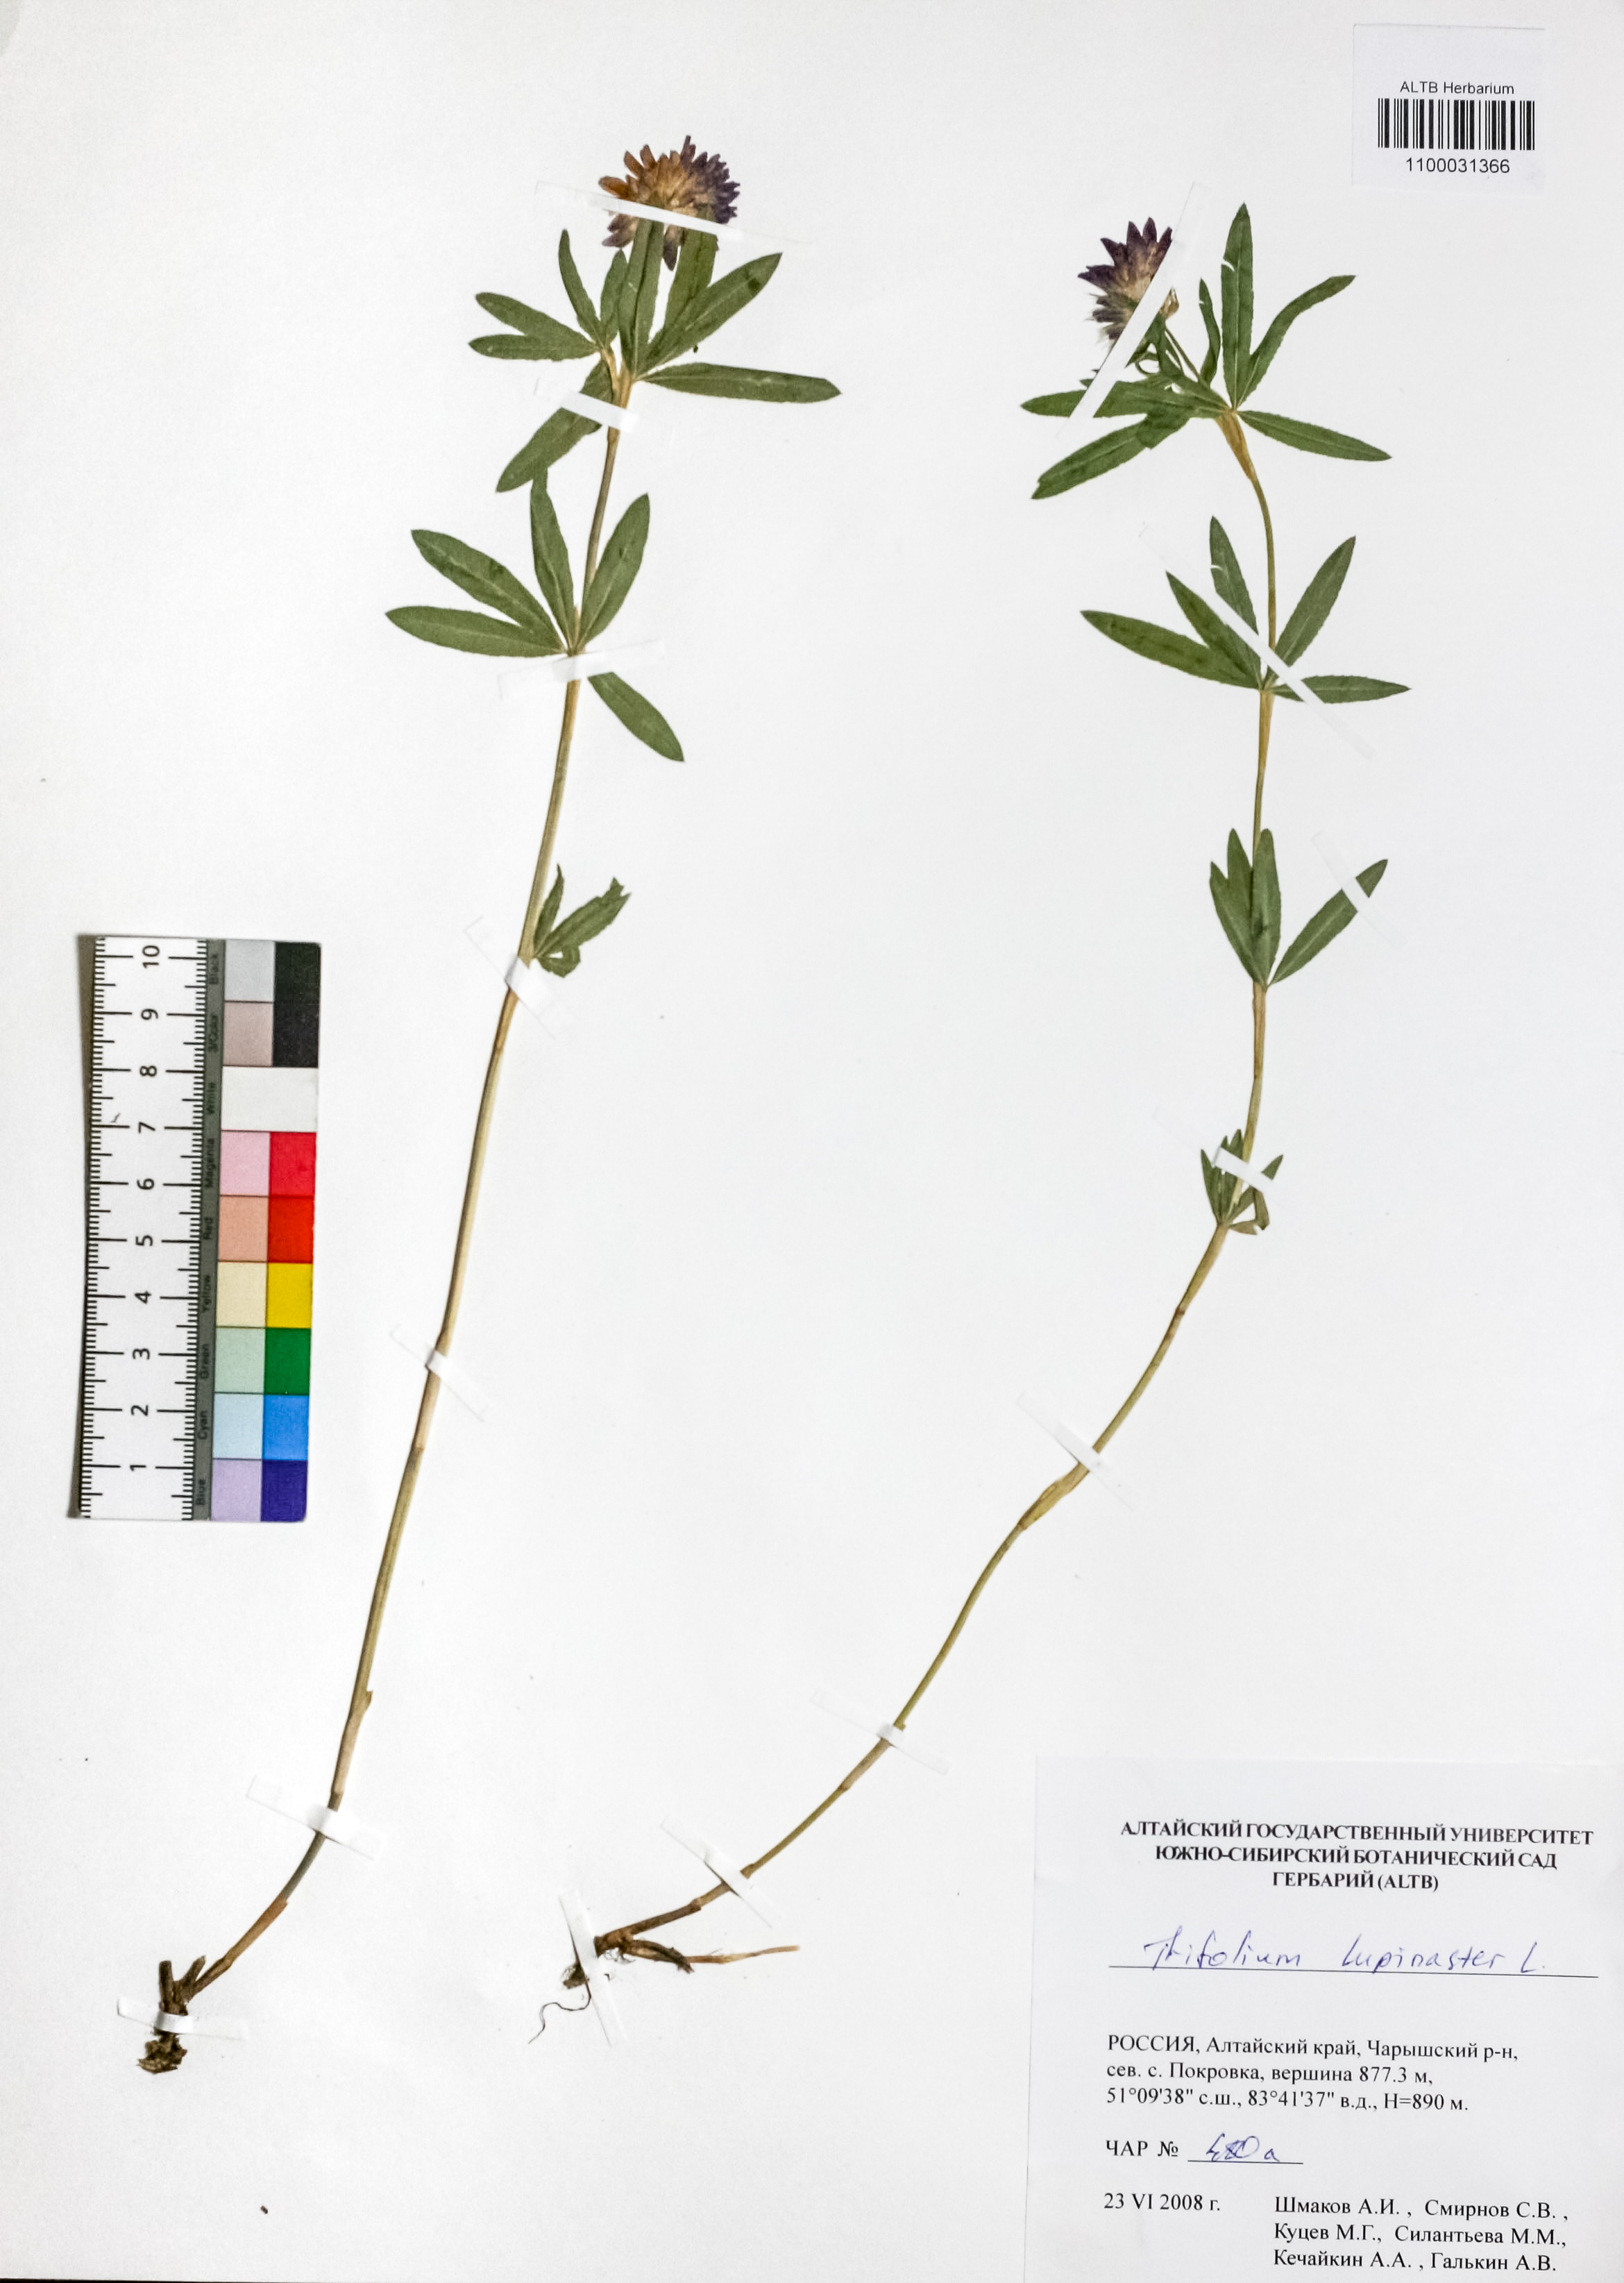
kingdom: Plantae
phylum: Tracheophyta
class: Magnoliopsida
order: Fabales
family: Fabaceae
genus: Trifolium
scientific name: Trifolium lupinaster
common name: Lupine clover
